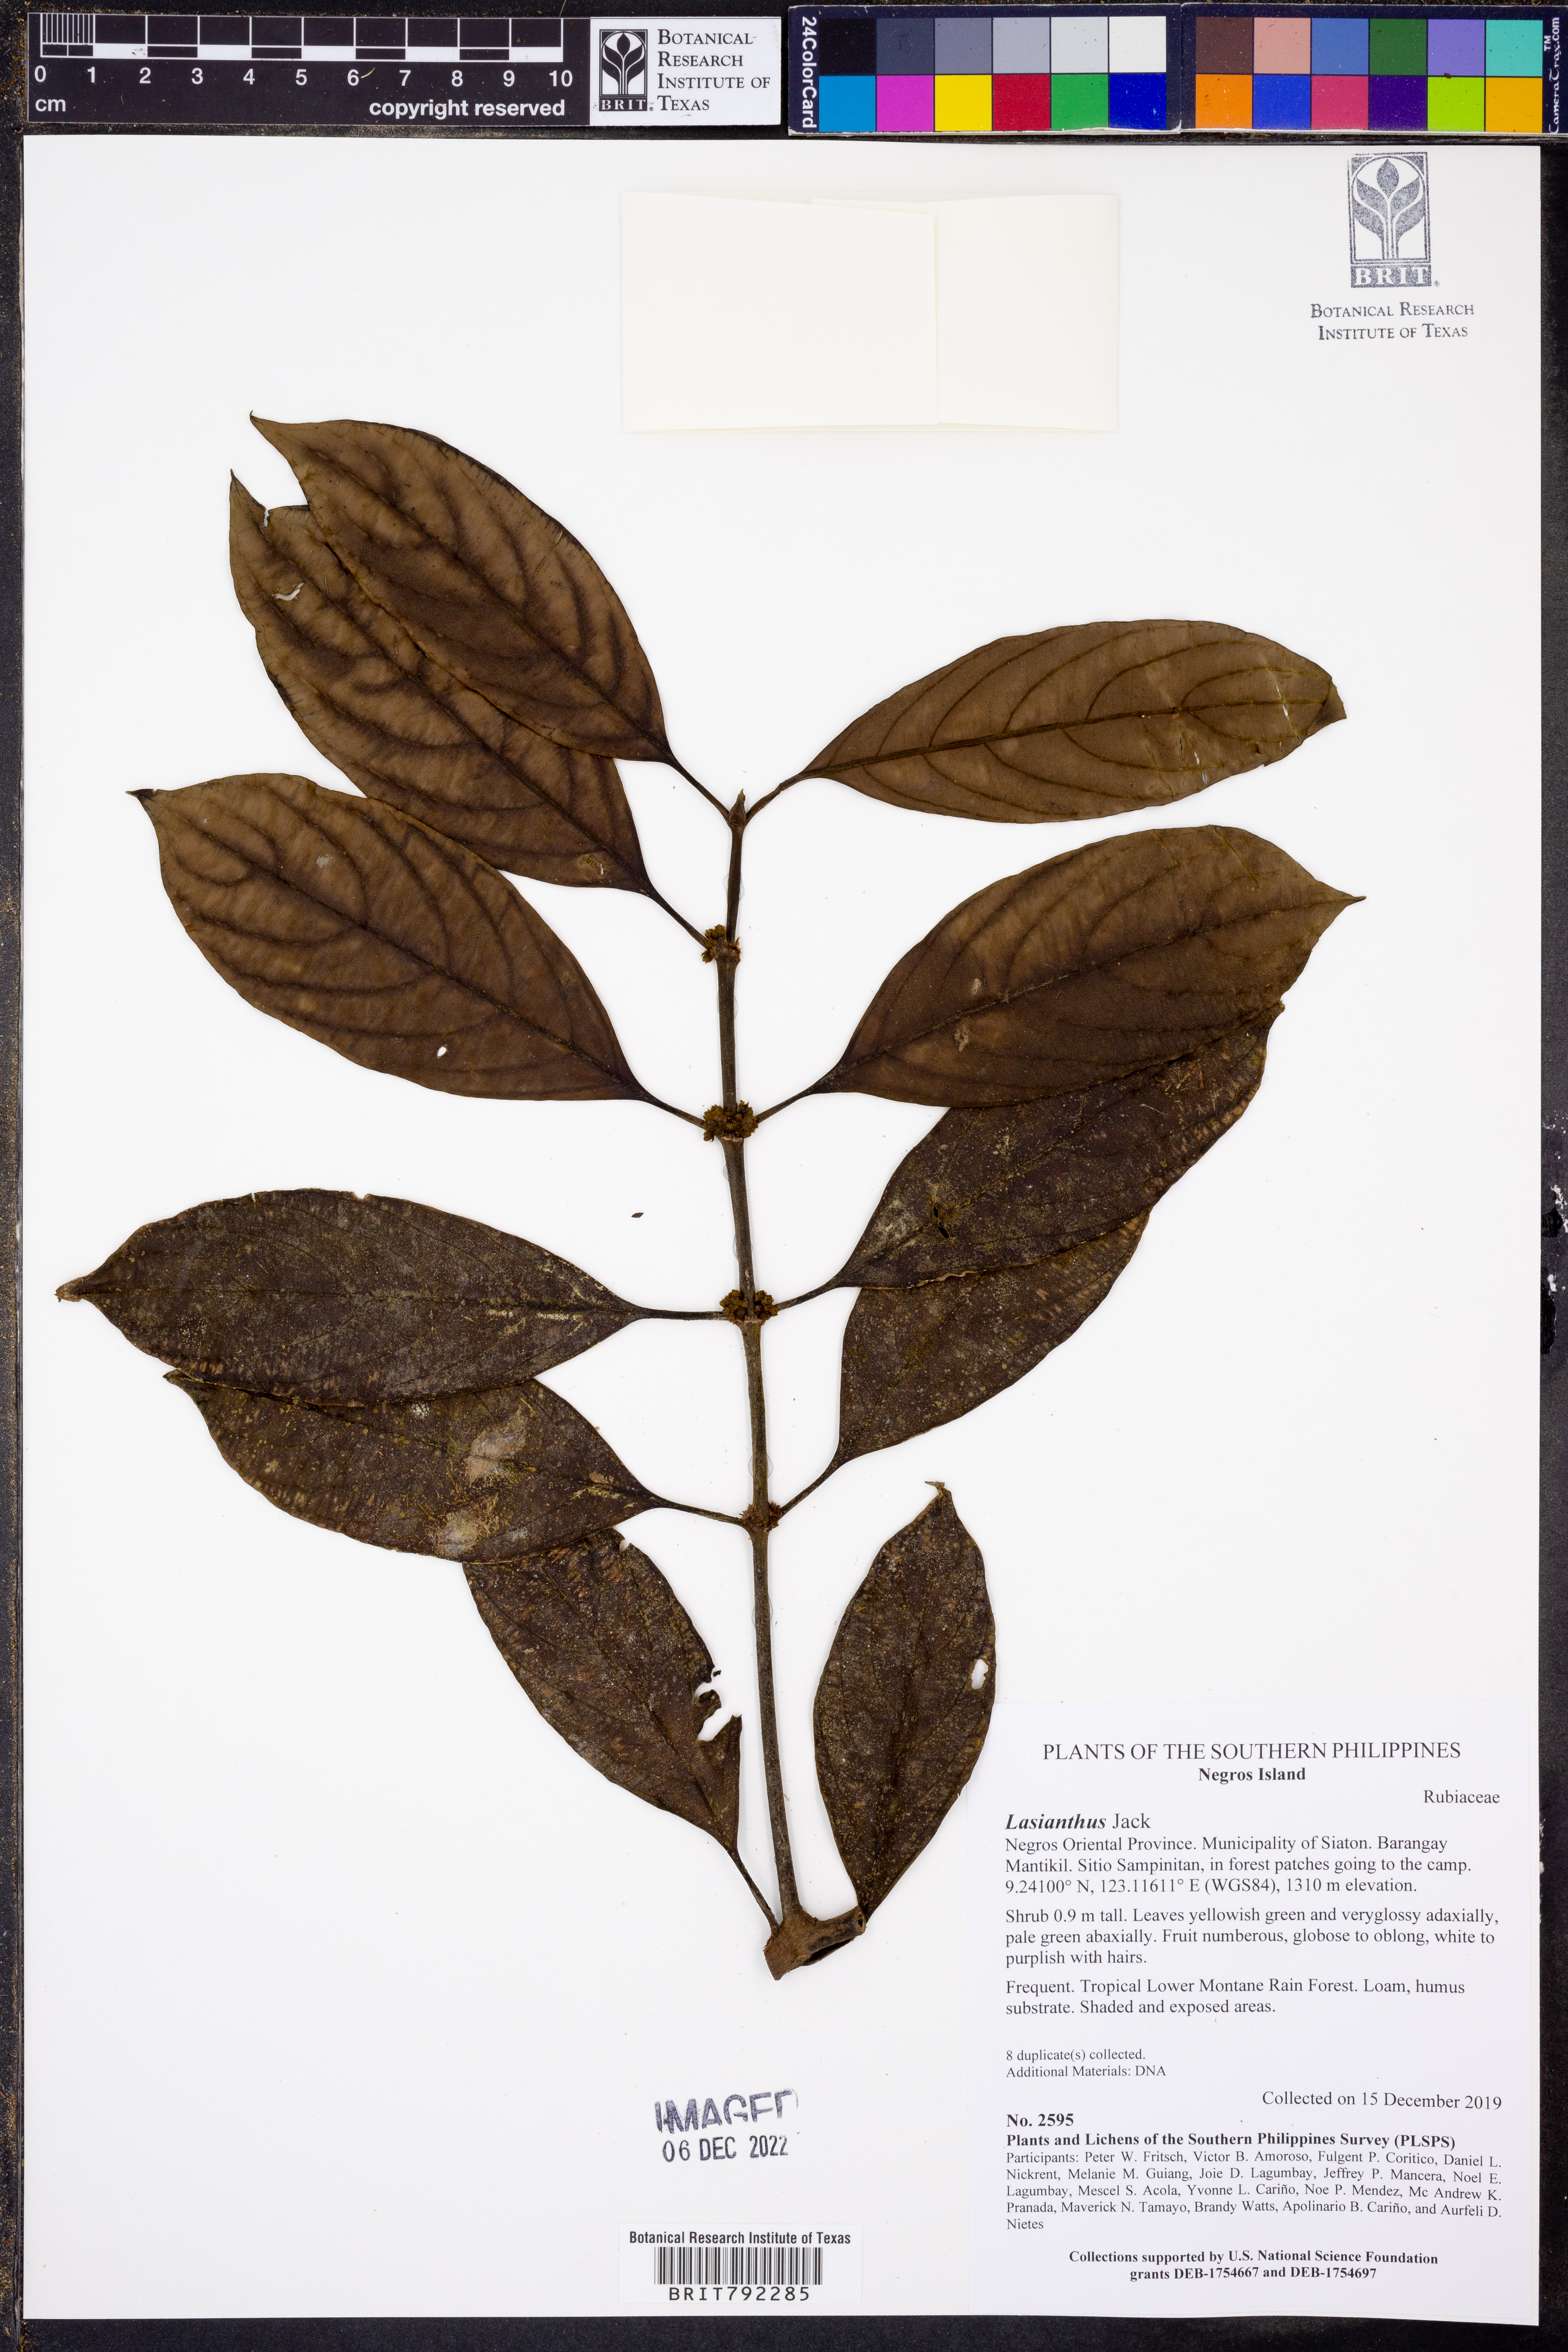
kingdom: Plantae
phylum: Tracheophyta
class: Magnoliopsida
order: Gentianales
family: Rubiaceae
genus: Lasianthus
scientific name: Lasianthus
